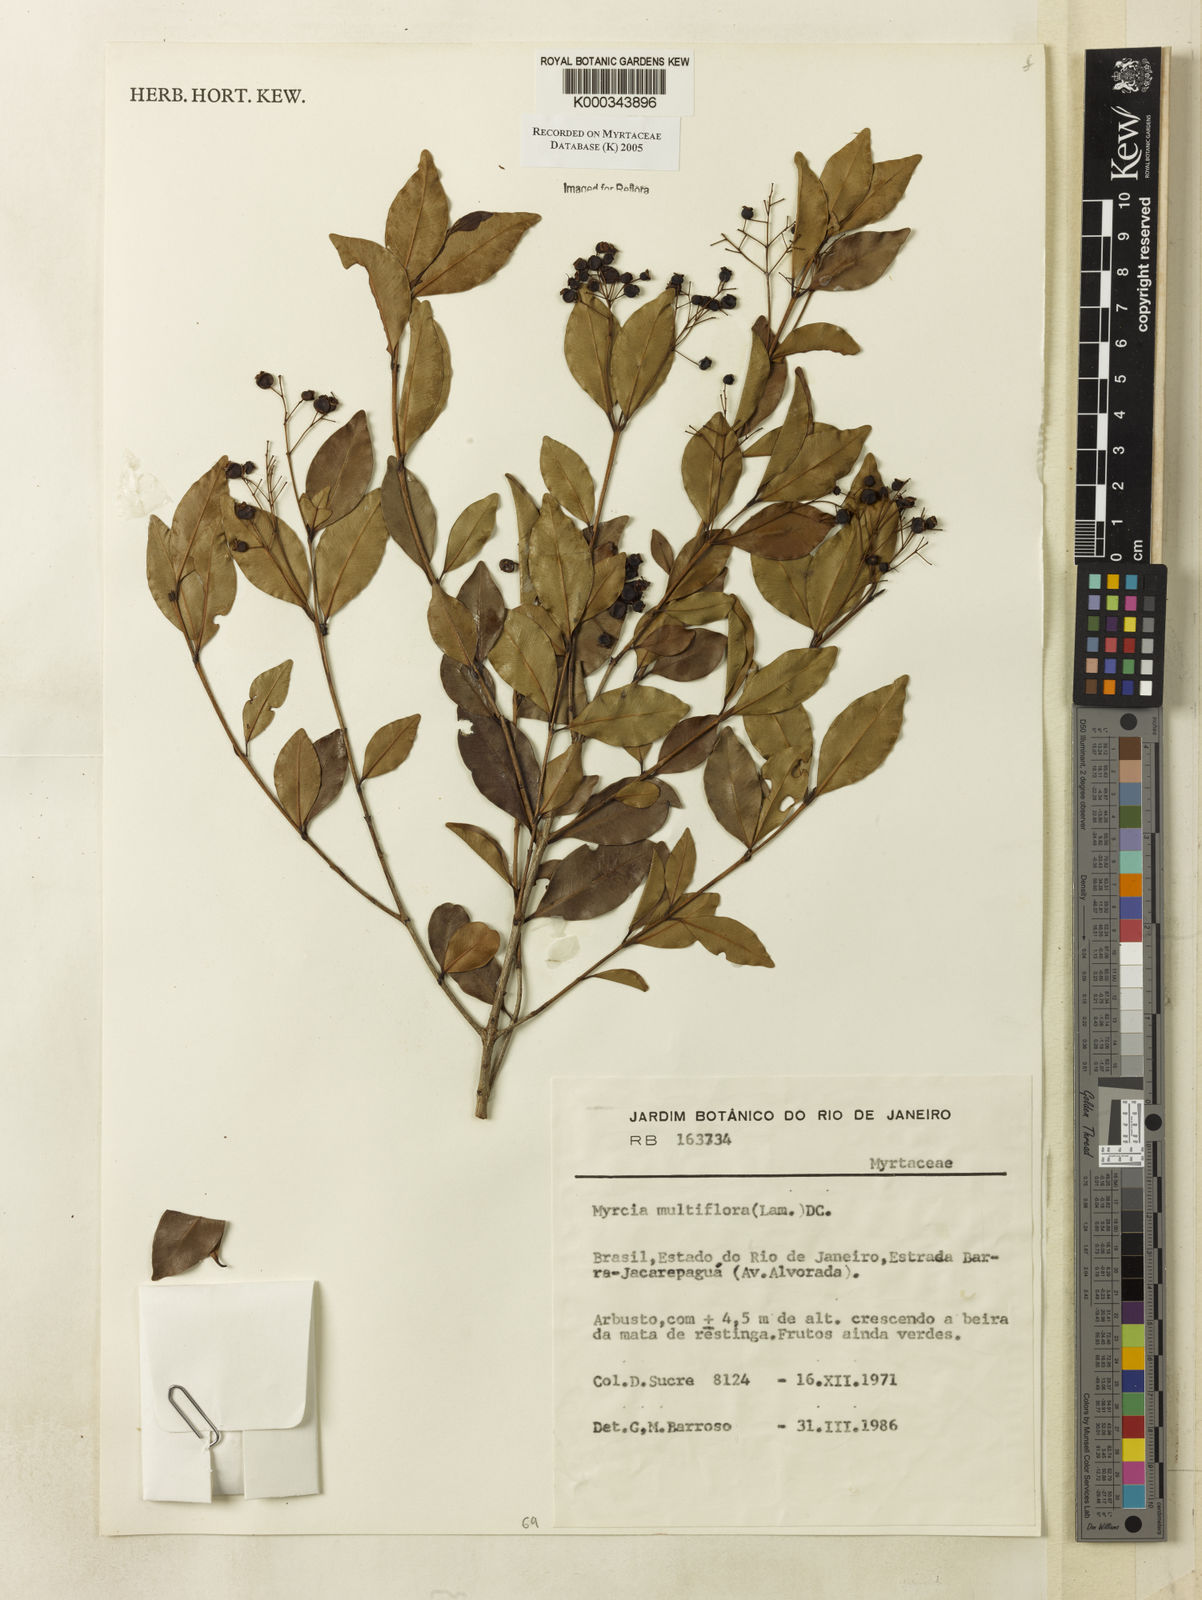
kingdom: Plantae
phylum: Tracheophyta
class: Magnoliopsida
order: Myrtales
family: Myrtaceae
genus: Myrcia
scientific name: Myrcia multiflora
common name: Pedra hume
